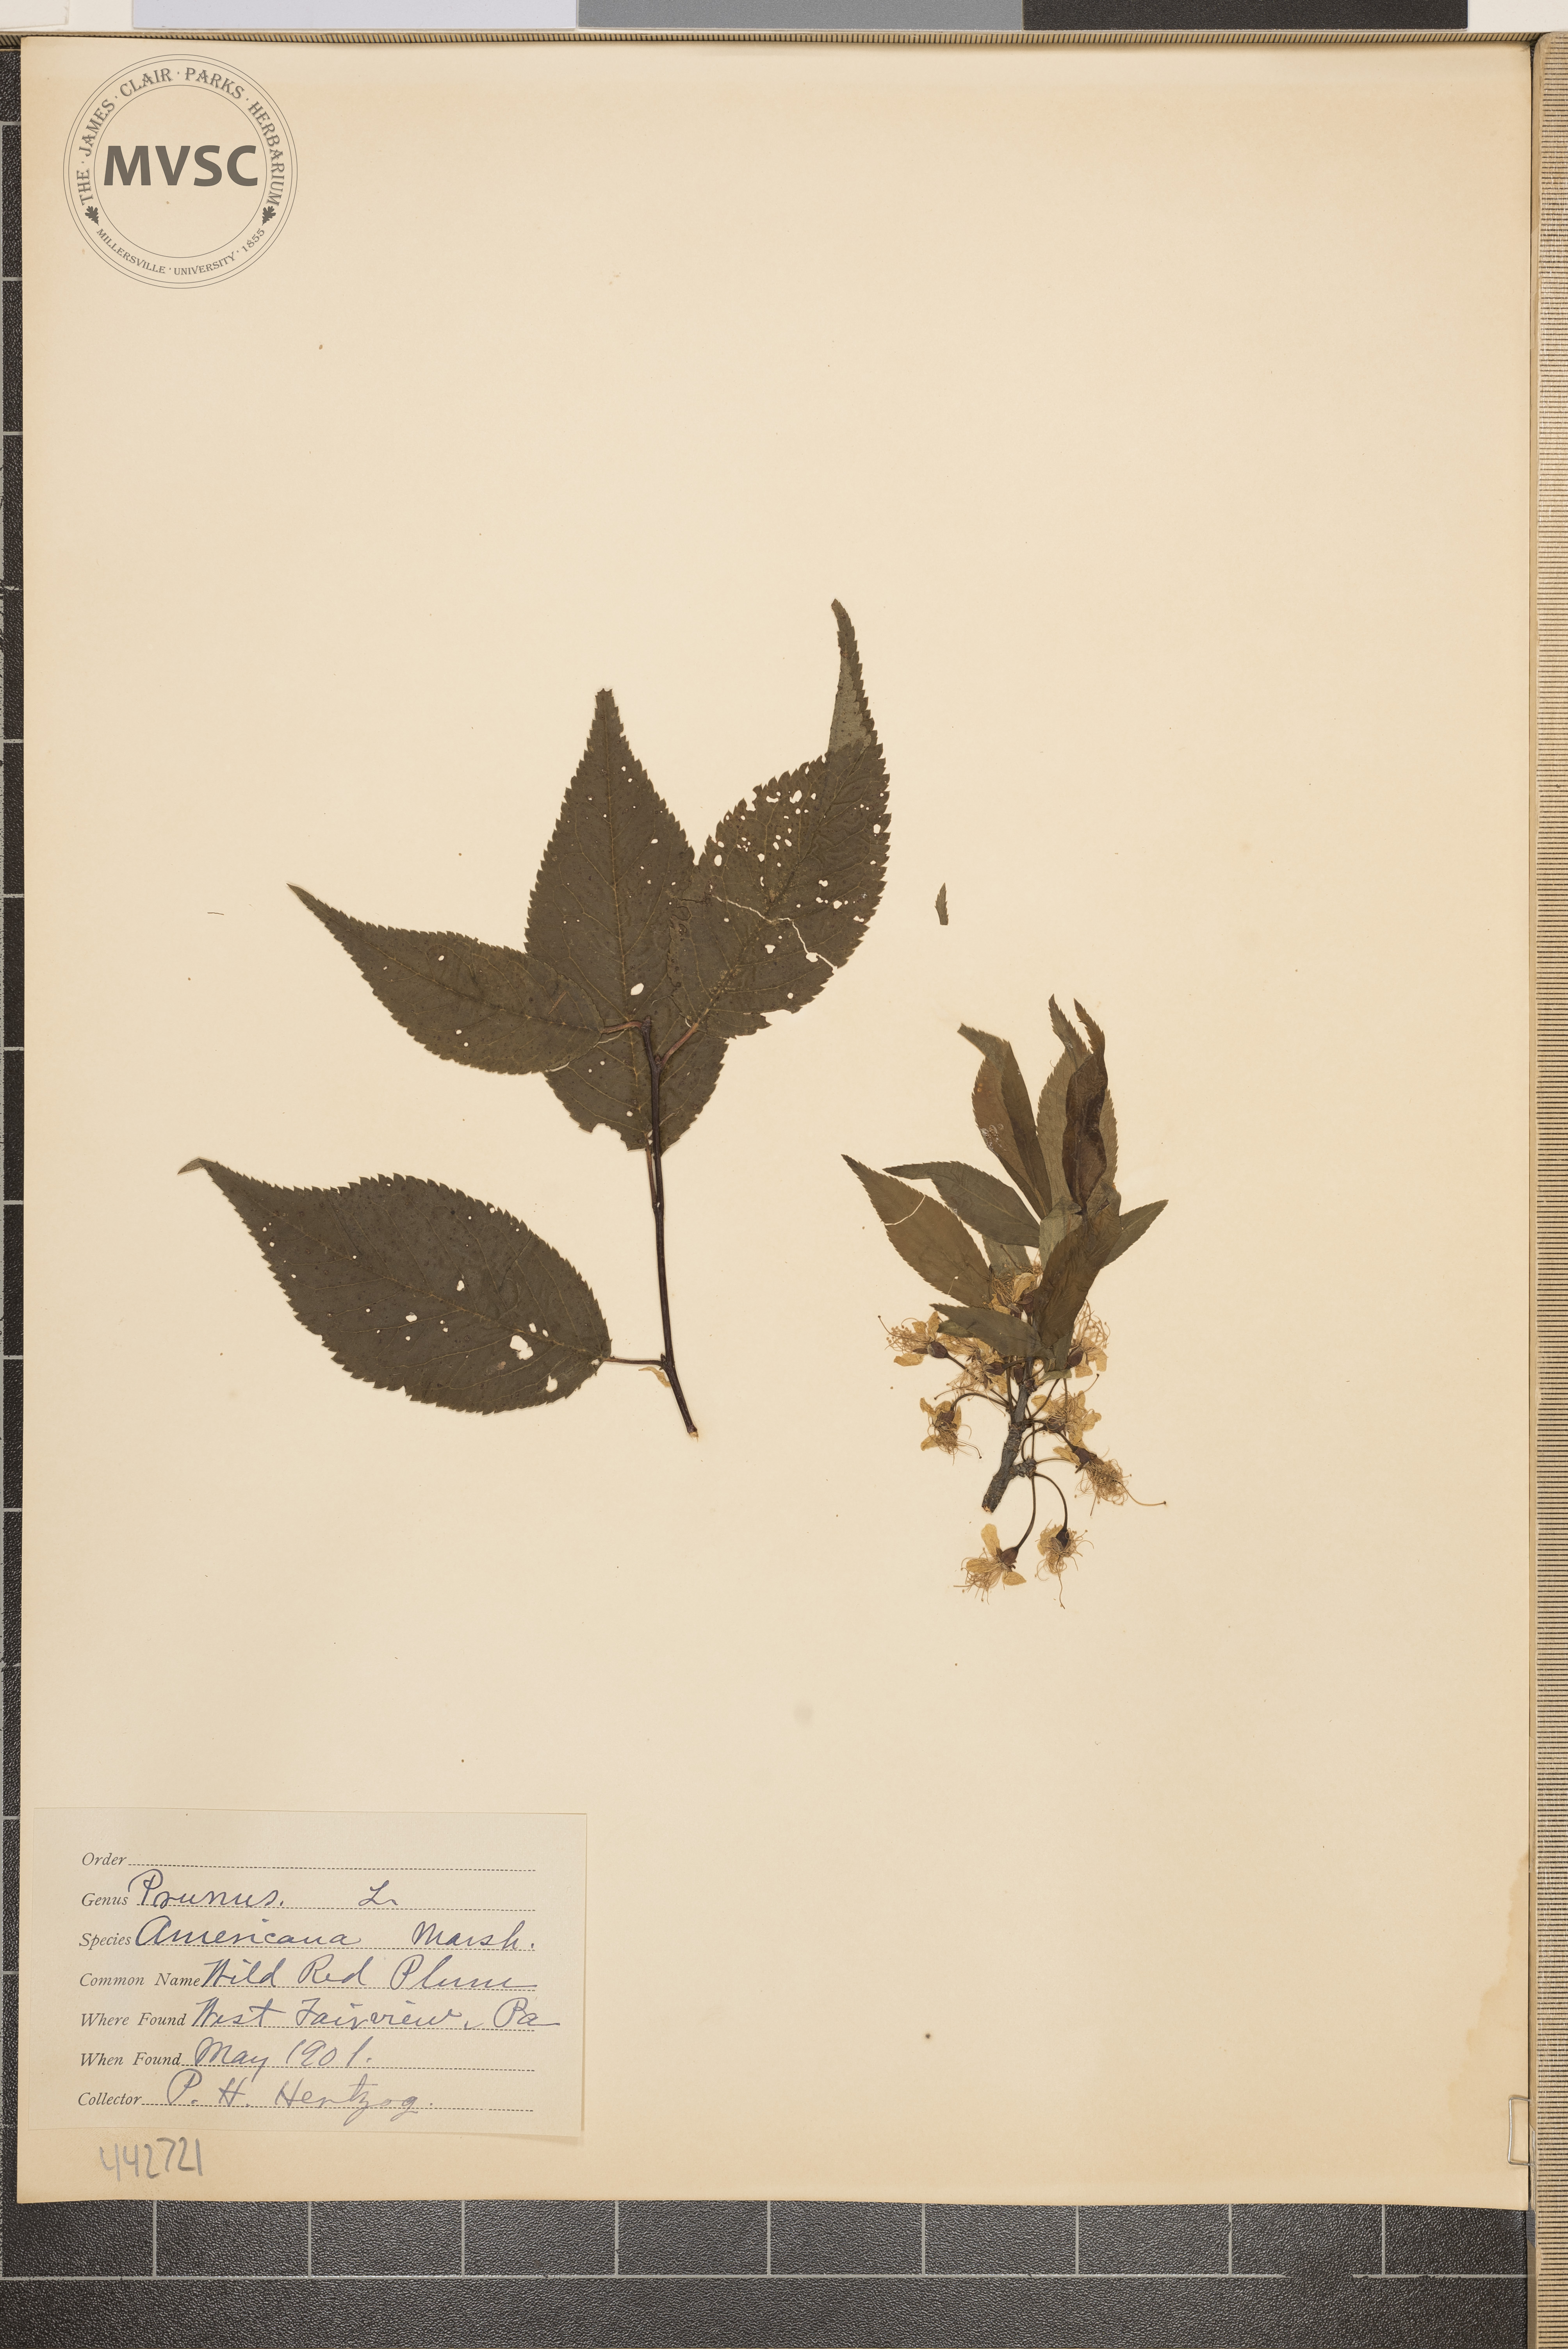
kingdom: Plantae
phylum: Tracheophyta
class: Magnoliopsida
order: Rosales
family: Rosaceae
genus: Prunus
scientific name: Prunus americana
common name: Wild red plum
